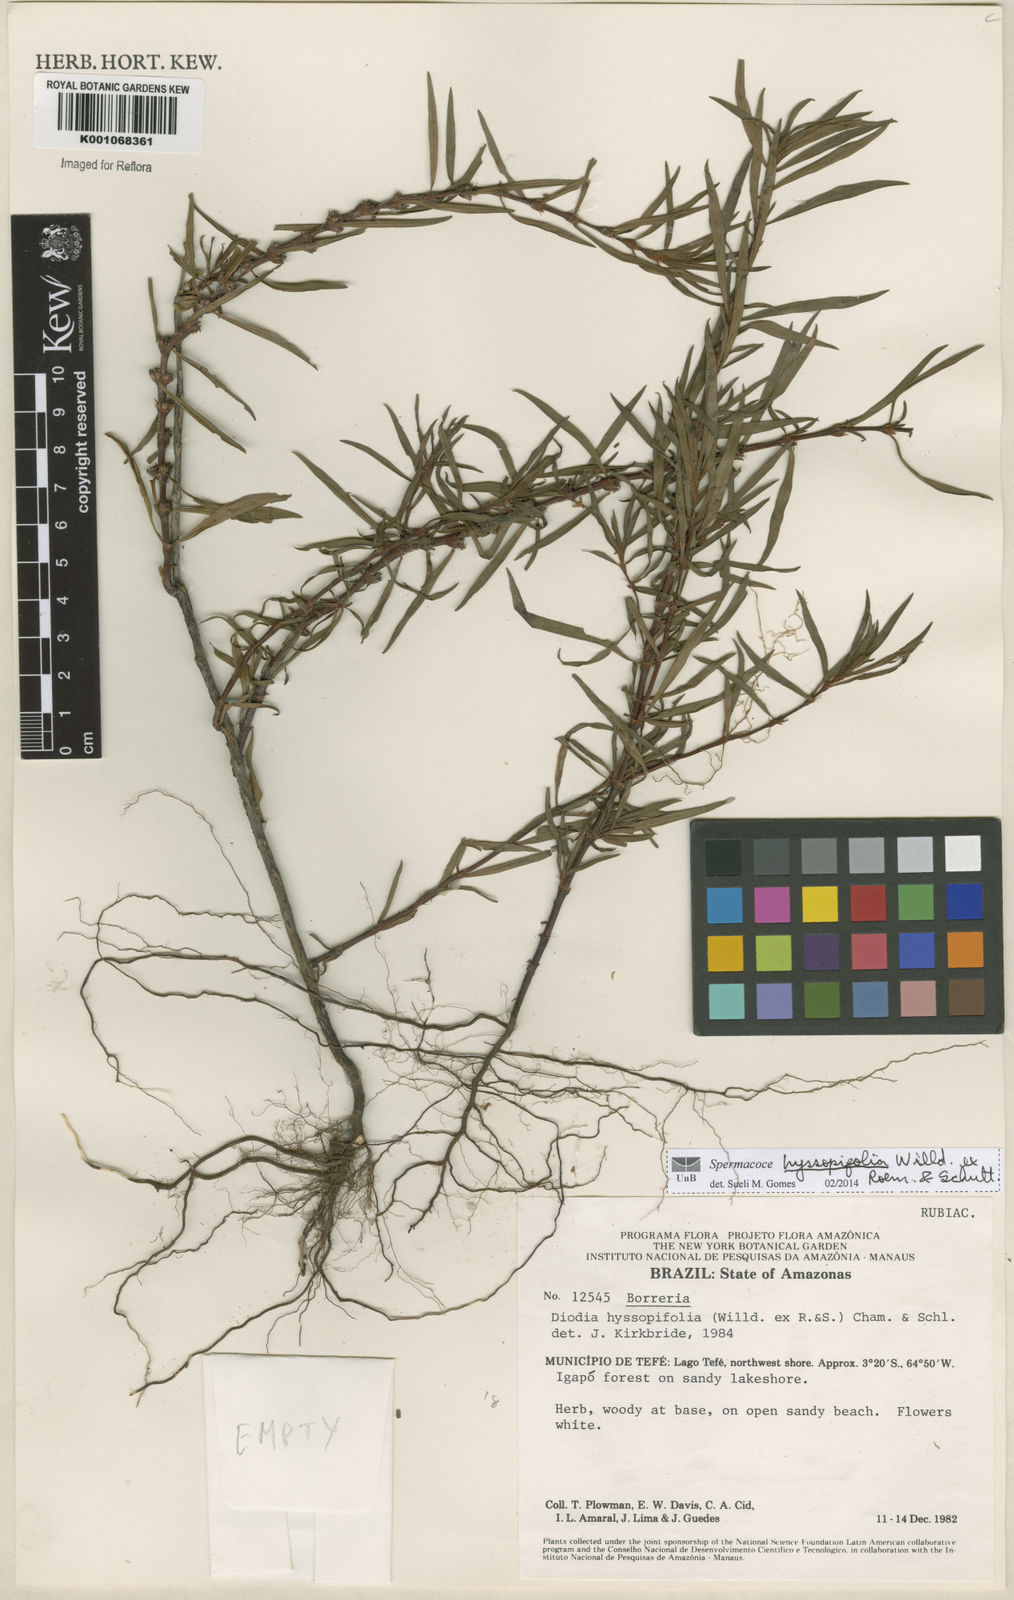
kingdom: Plantae
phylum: Tracheophyta
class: Magnoliopsida
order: Gentianales
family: Rubiaceae
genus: Spermacoce
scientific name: Spermacoce
